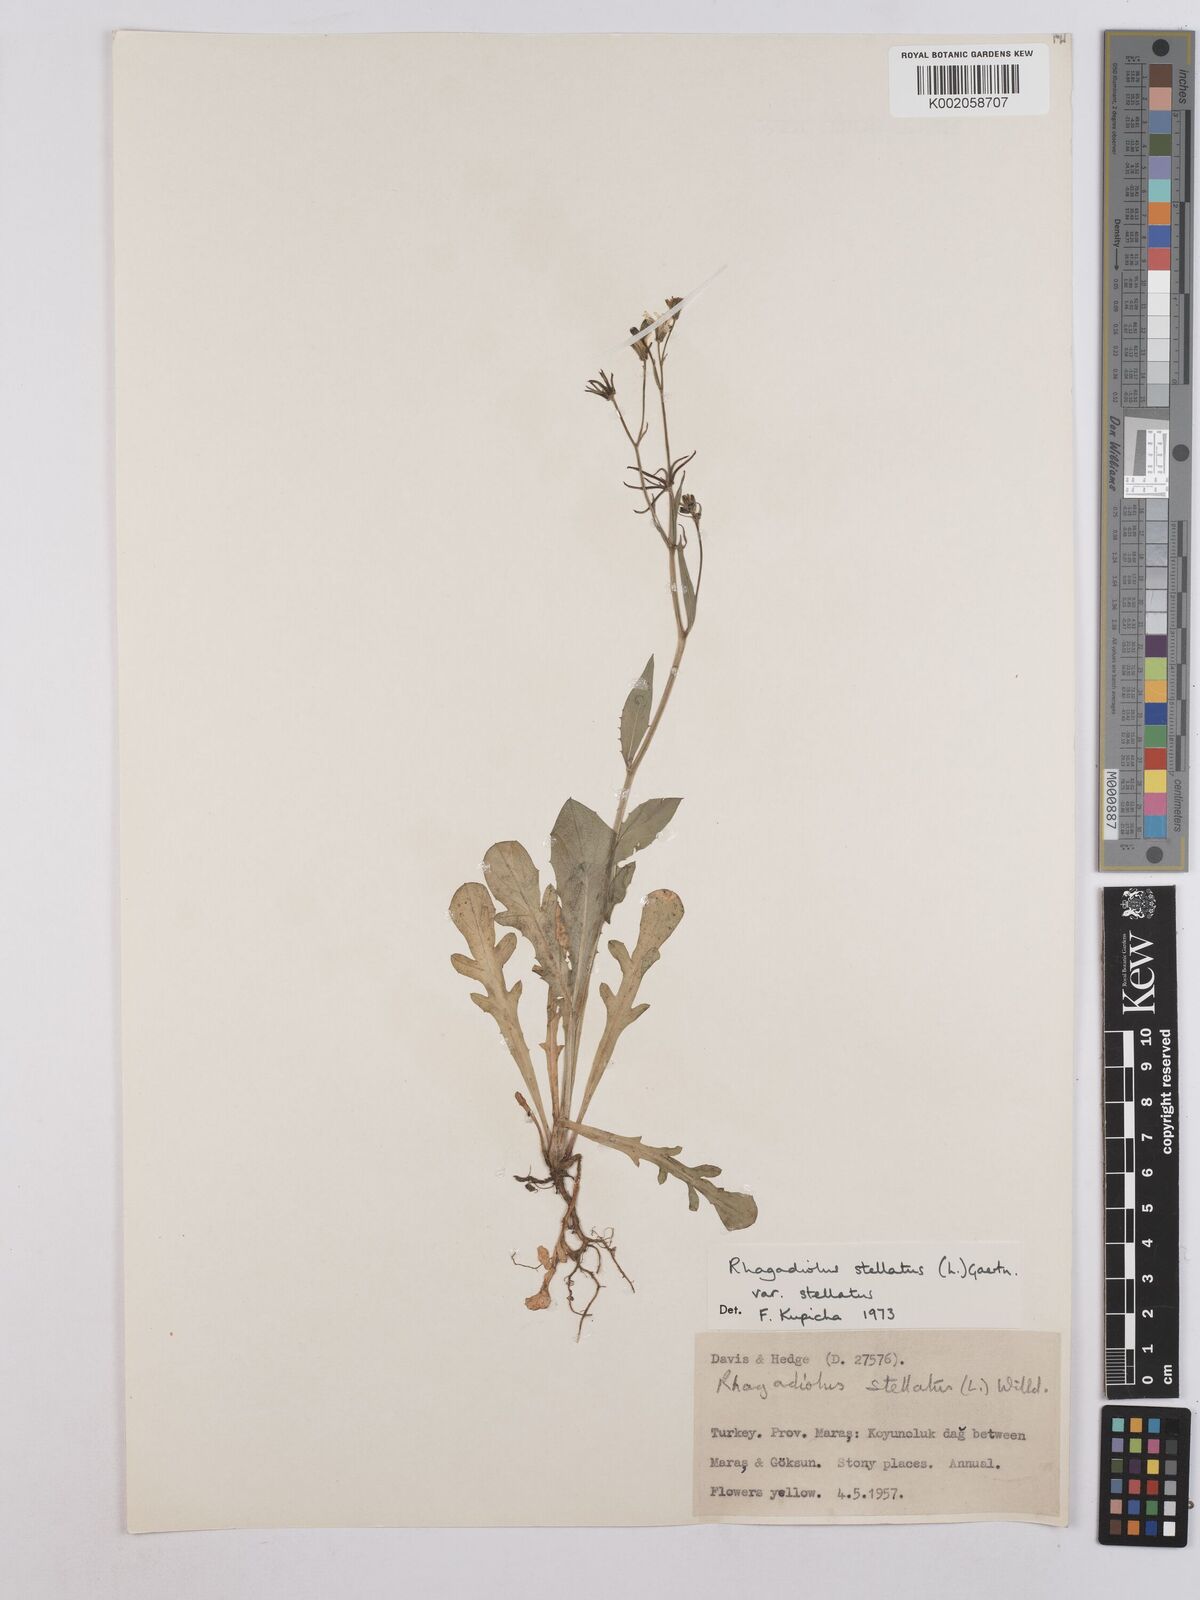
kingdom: Plantae
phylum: Tracheophyta
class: Magnoliopsida
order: Asterales
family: Asteraceae
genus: Rhagadiolus
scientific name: Rhagadiolus stellatus
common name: Star hawkbit
